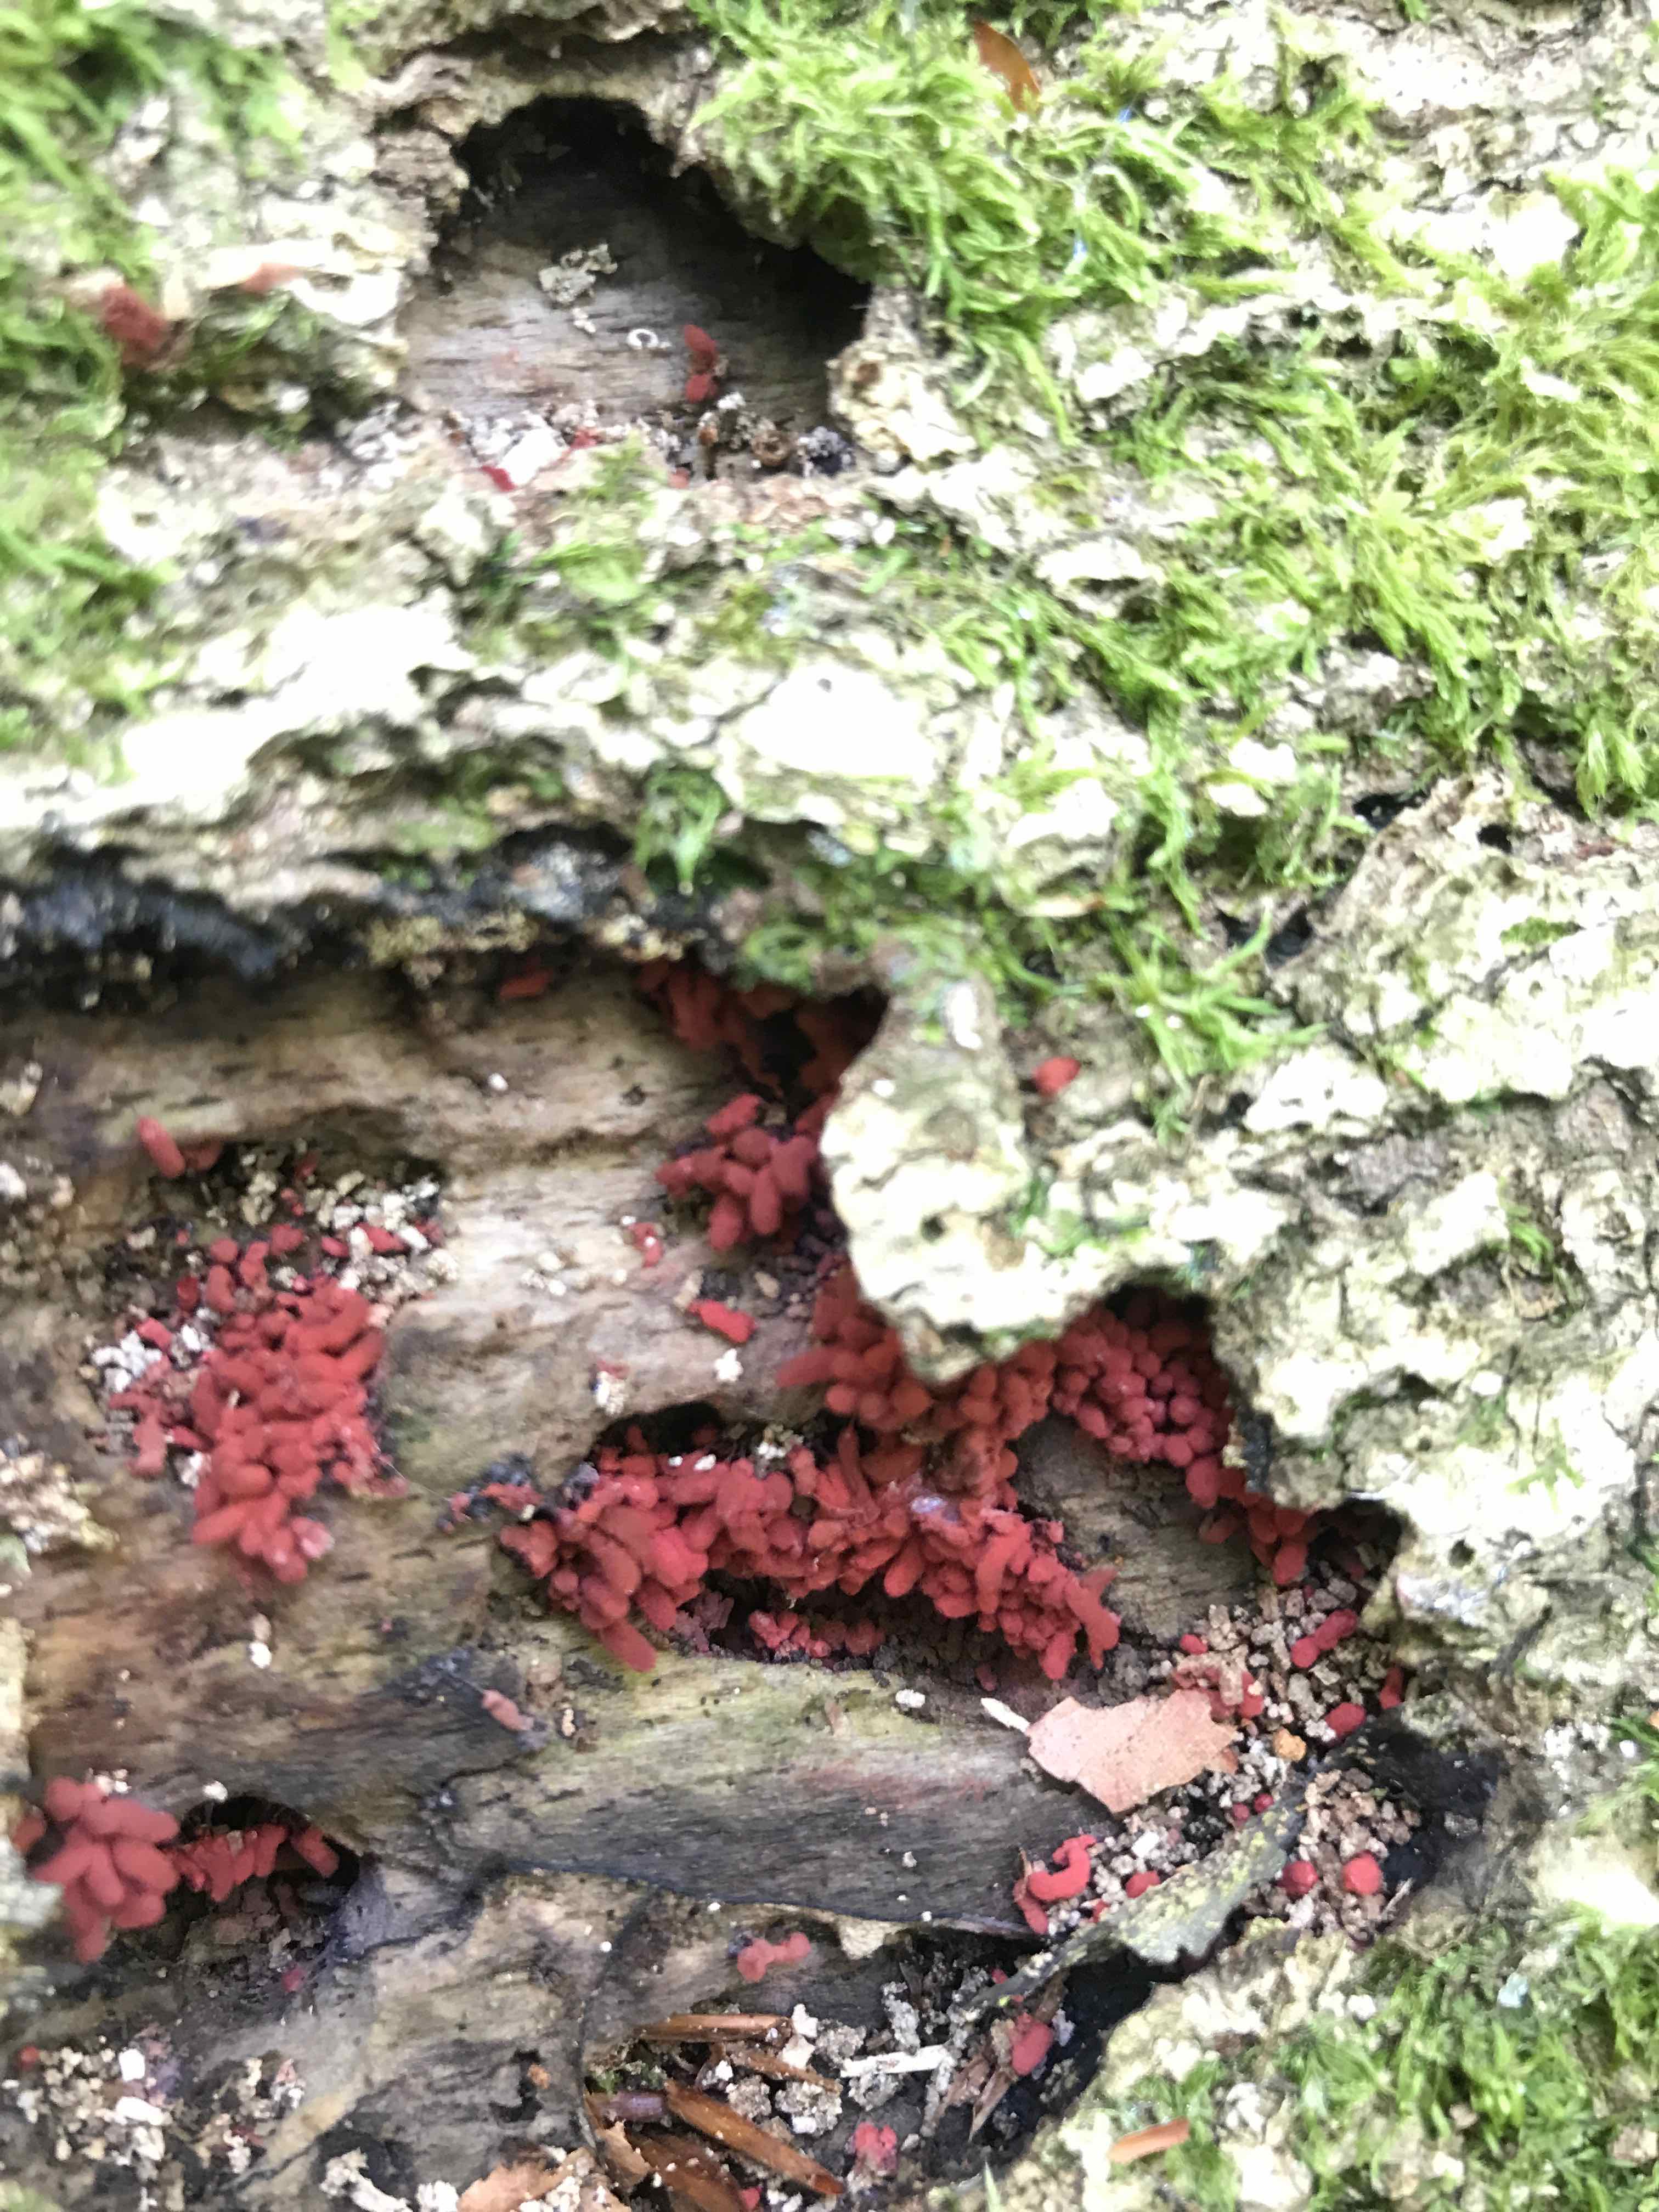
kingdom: Protozoa
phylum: Amoebozoa
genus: Arcyria
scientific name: Arcyria
